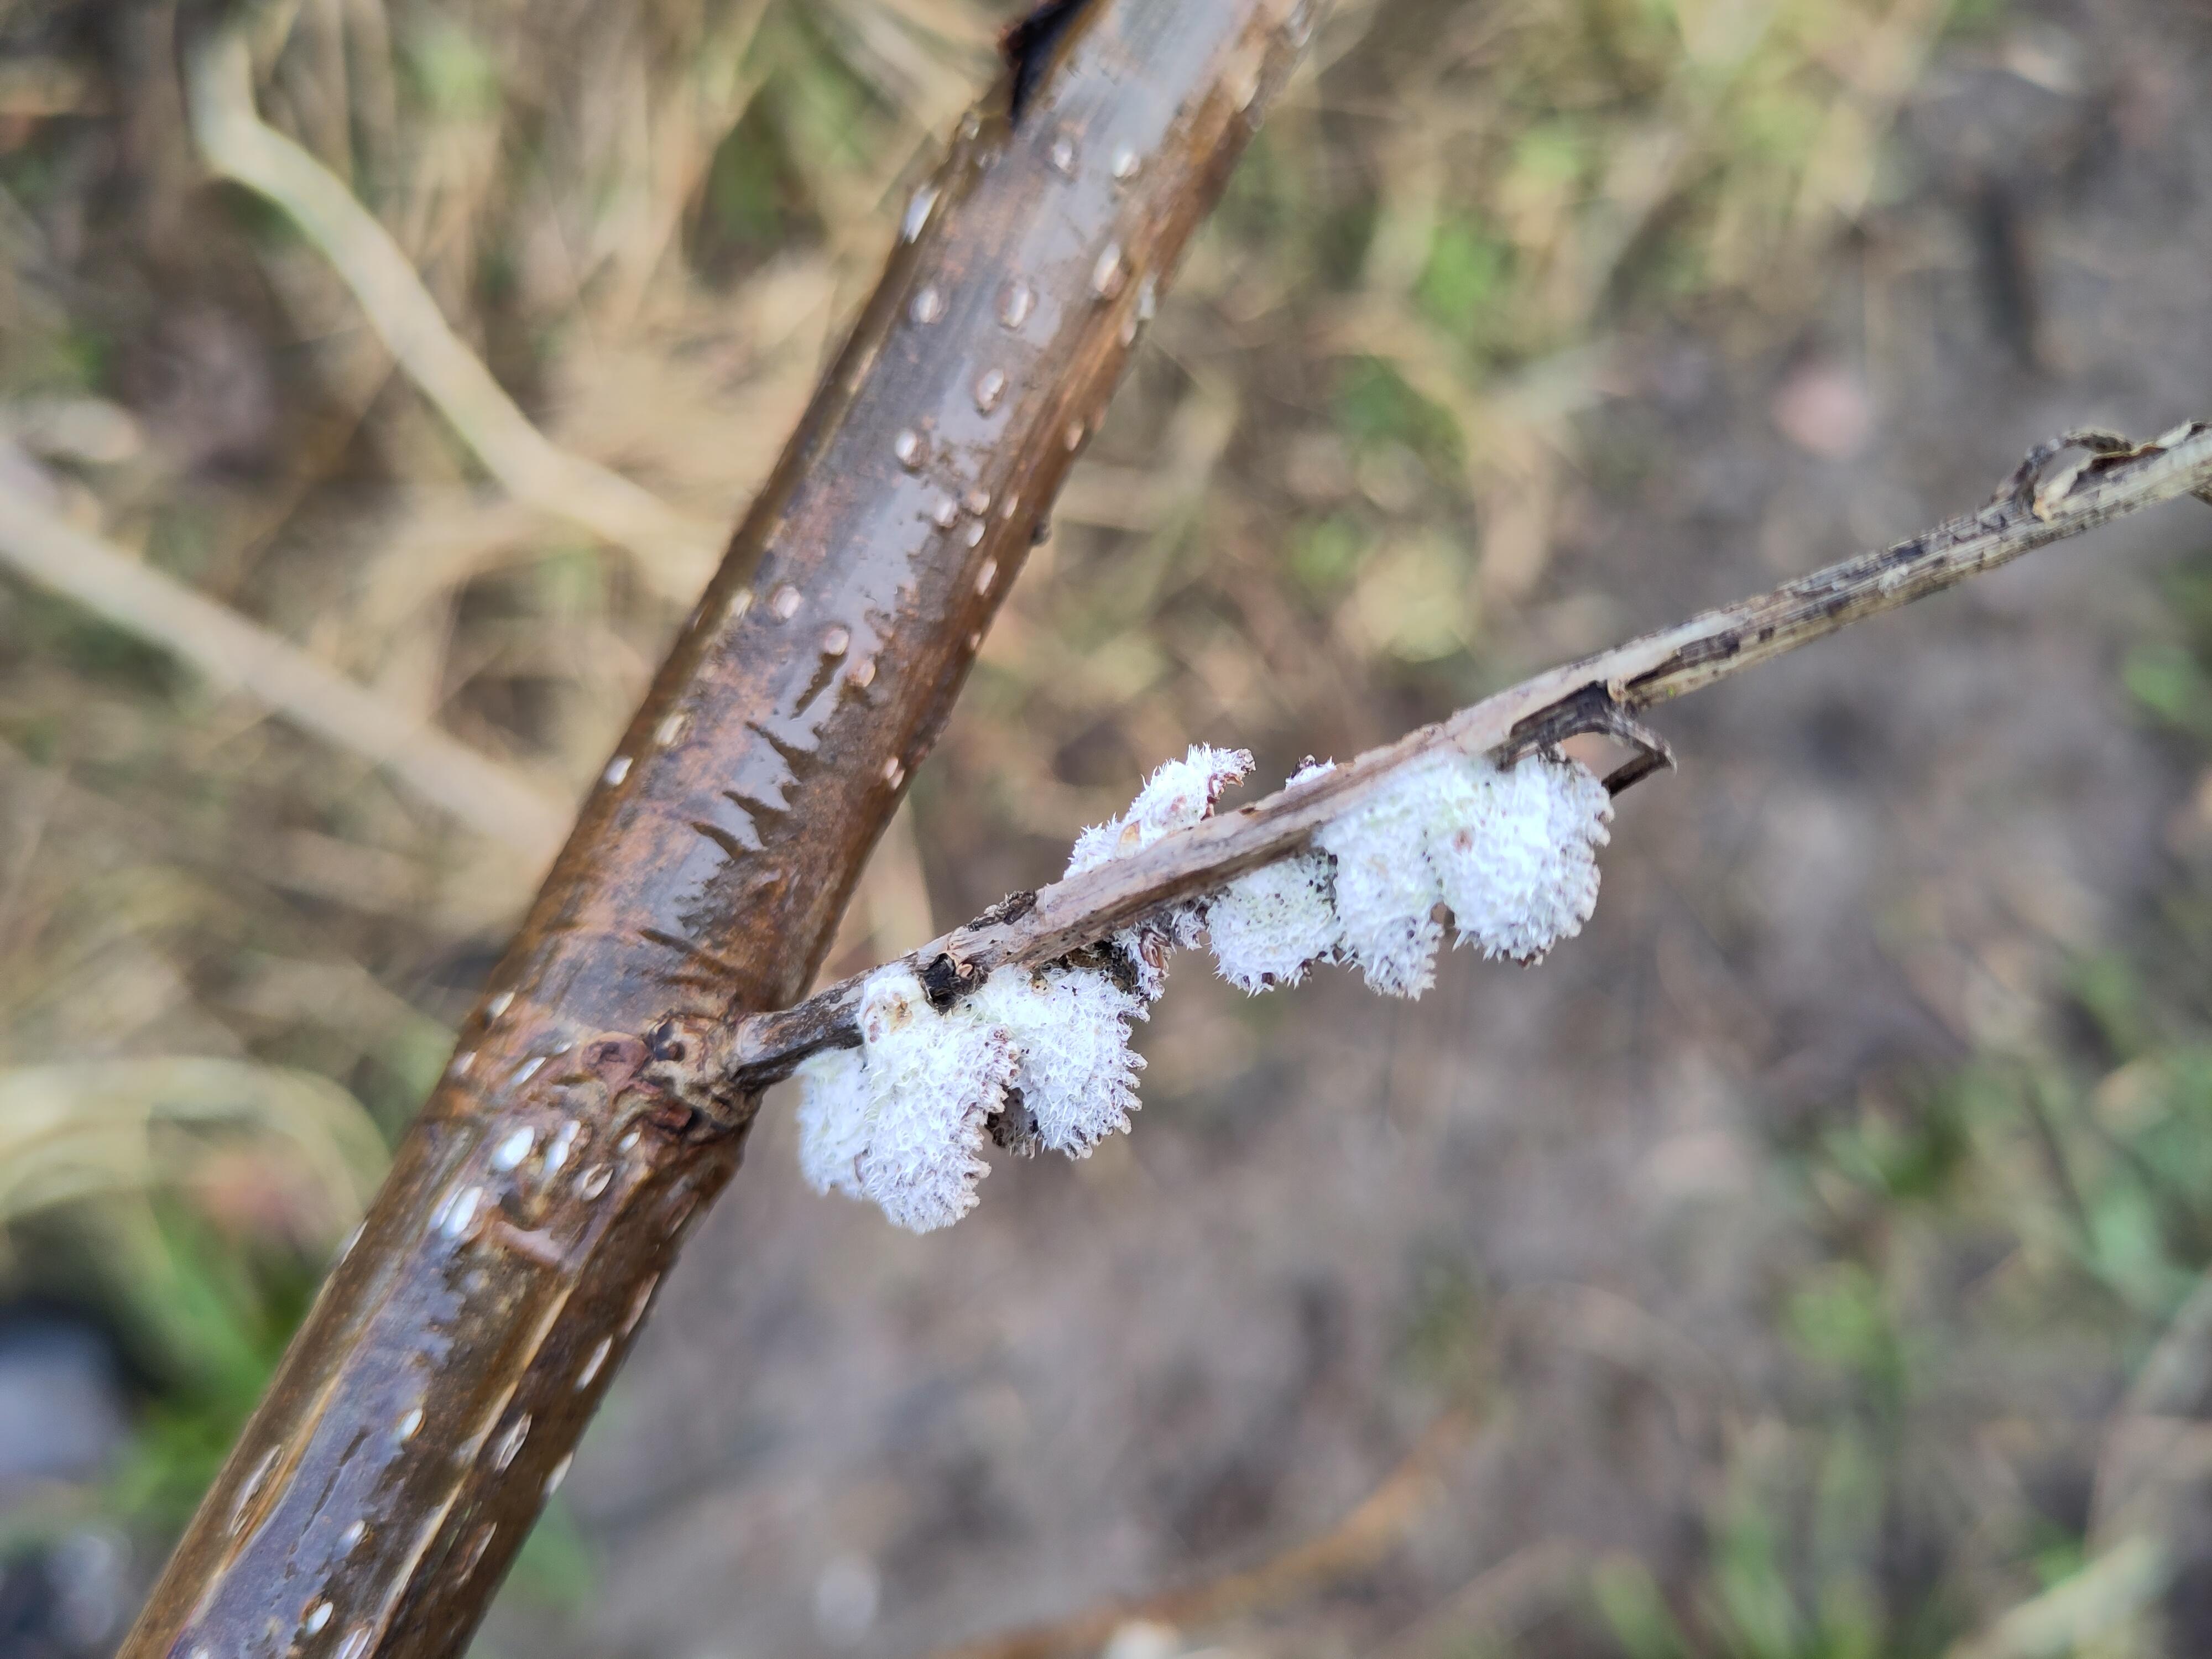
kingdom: Fungi
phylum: Basidiomycota
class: Agaricomycetes
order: Agaricales
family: Schizophyllaceae
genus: Schizophyllum
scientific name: Schizophyllum commune
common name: kløvblad
